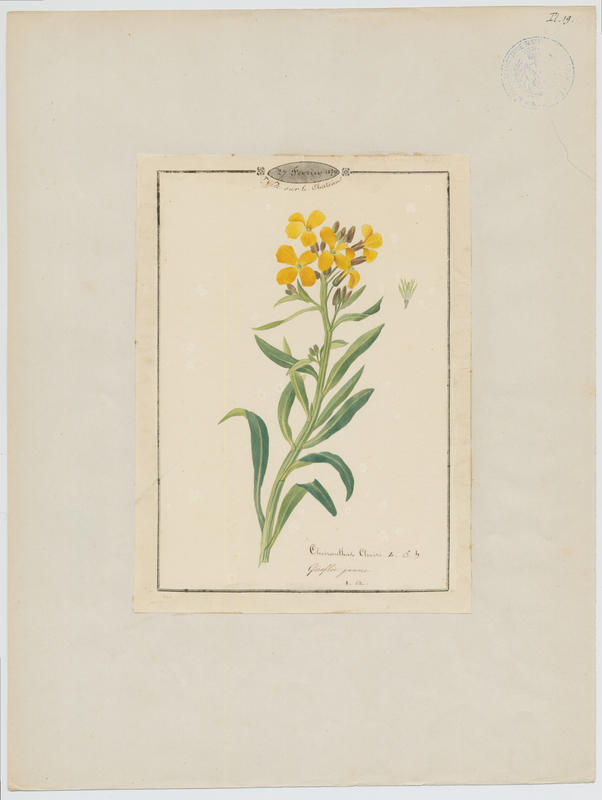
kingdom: Plantae
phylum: Tracheophyta
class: Magnoliopsida
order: Brassicales
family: Brassicaceae
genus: Erysimum
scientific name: Erysimum cheiri
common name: Wallflower
